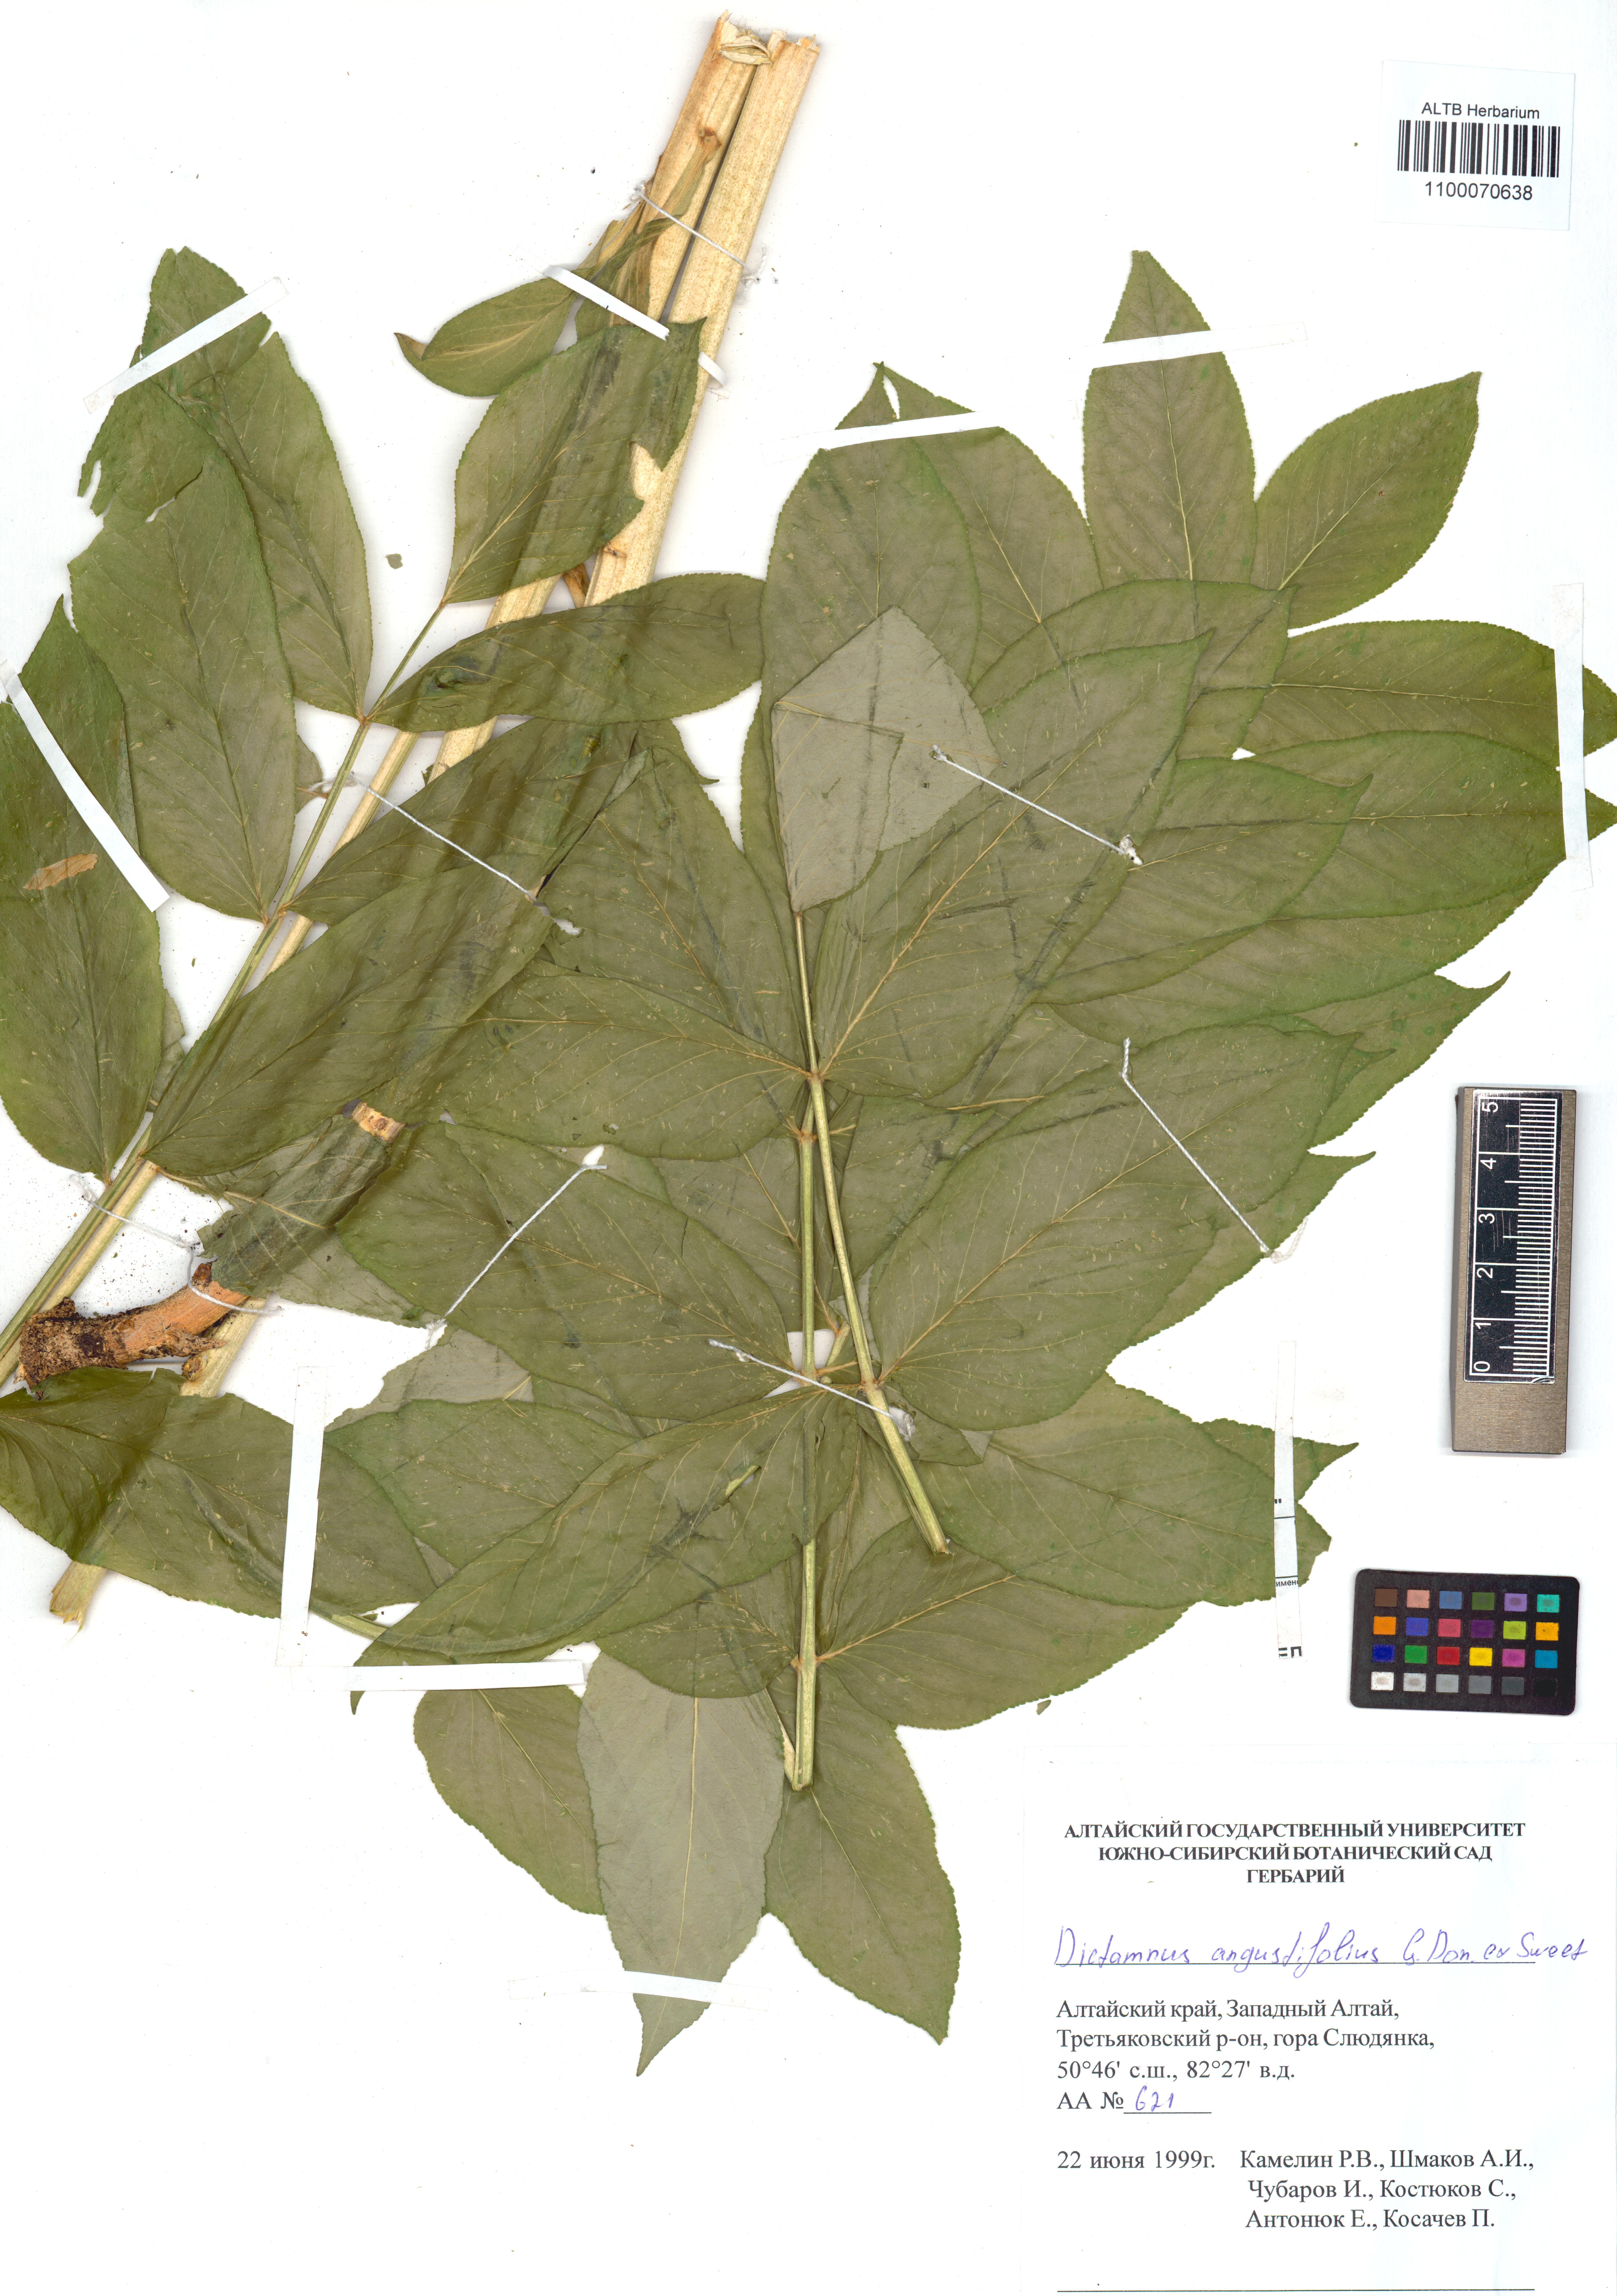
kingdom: Plantae
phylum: Tracheophyta
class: Magnoliopsida
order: Sapindales
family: Rutaceae
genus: Dictamnus
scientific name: Dictamnus albus
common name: Gasplant
